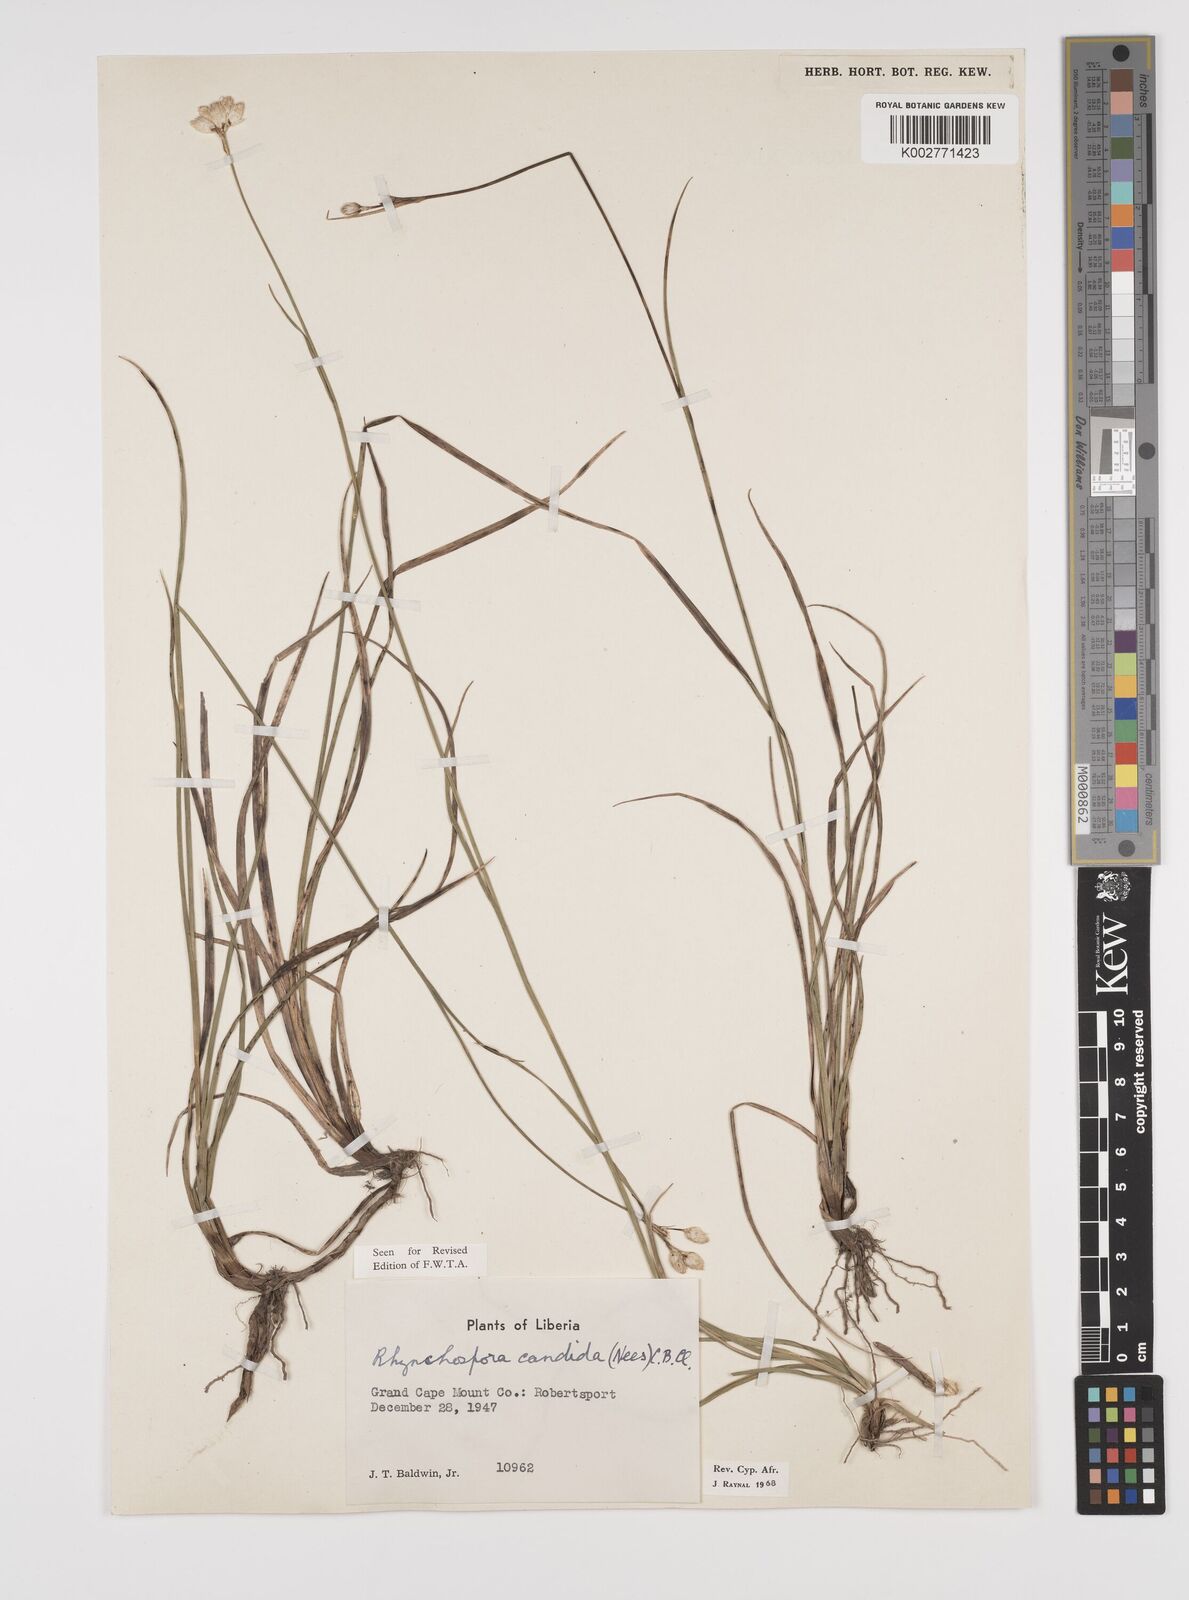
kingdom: Plantae
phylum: Tracheophyta
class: Liliopsida
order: Poales
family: Cyperaceae
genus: Rhynchospora
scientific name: Rhynchospora candida
